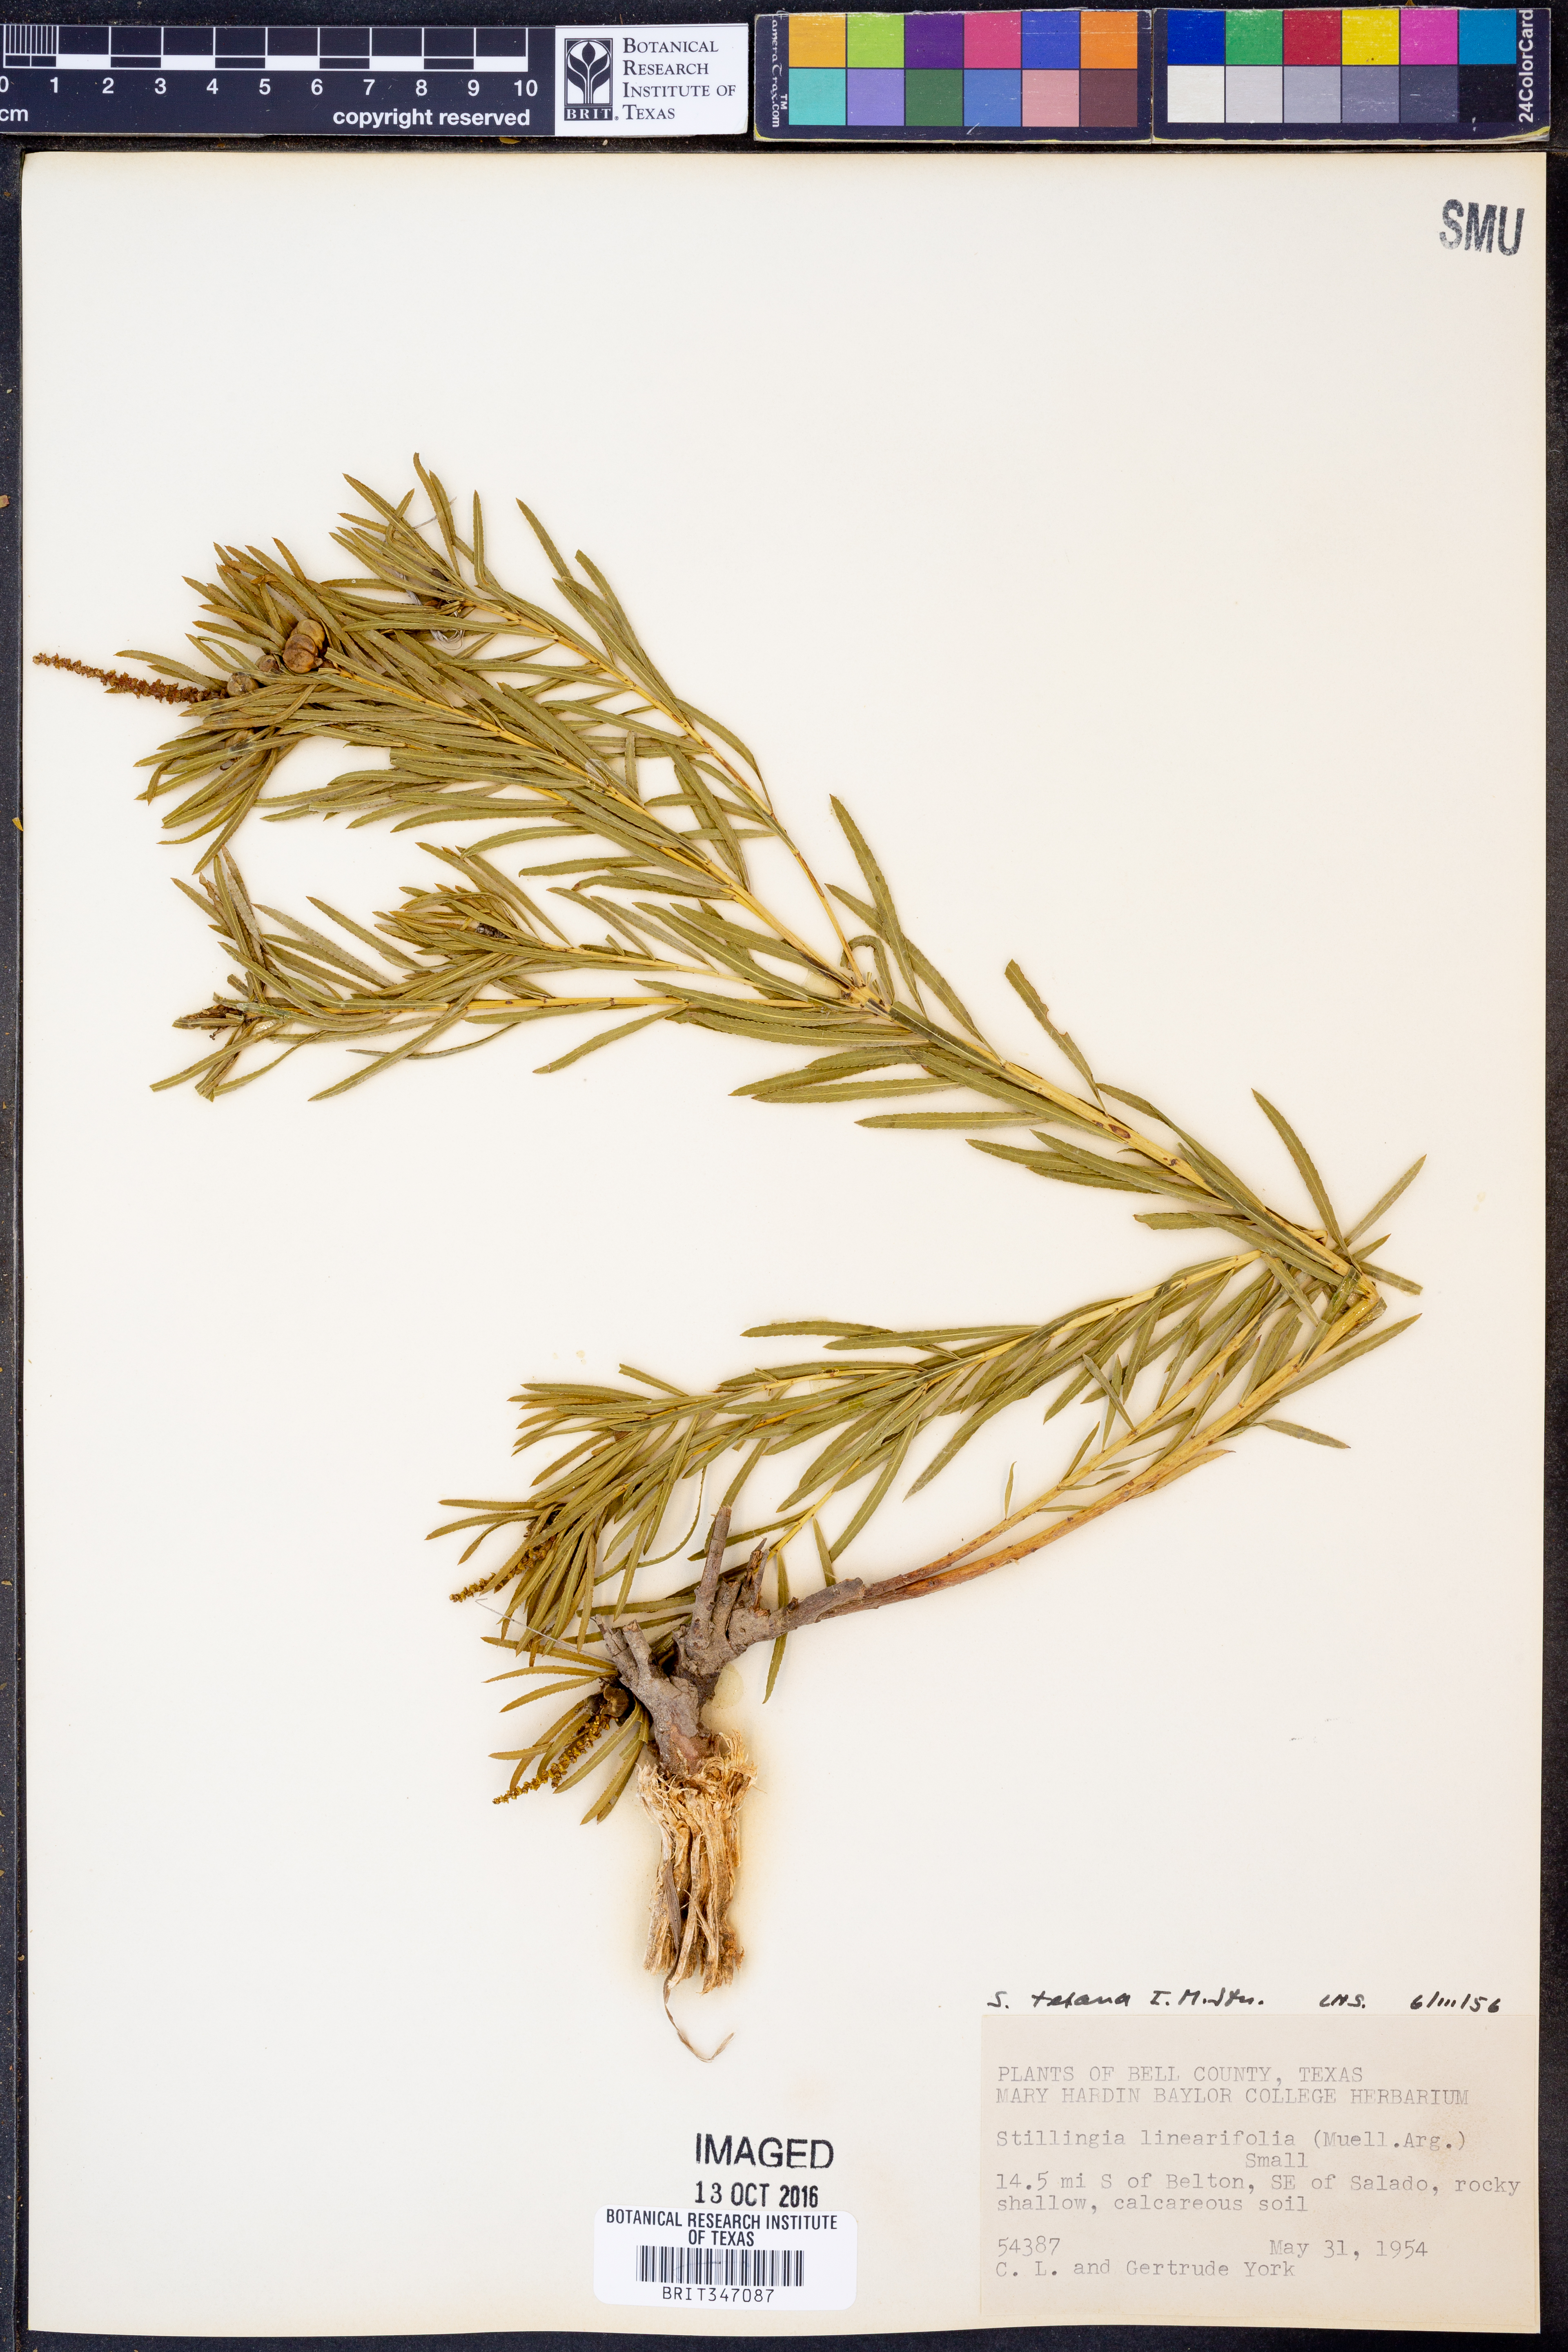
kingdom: Plantae
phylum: Tracheophyta
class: Magnoliopsida
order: Malpighiales
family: Euphorbiaceae
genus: Stillingia
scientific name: Stillingia texana
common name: Texas stillingia
